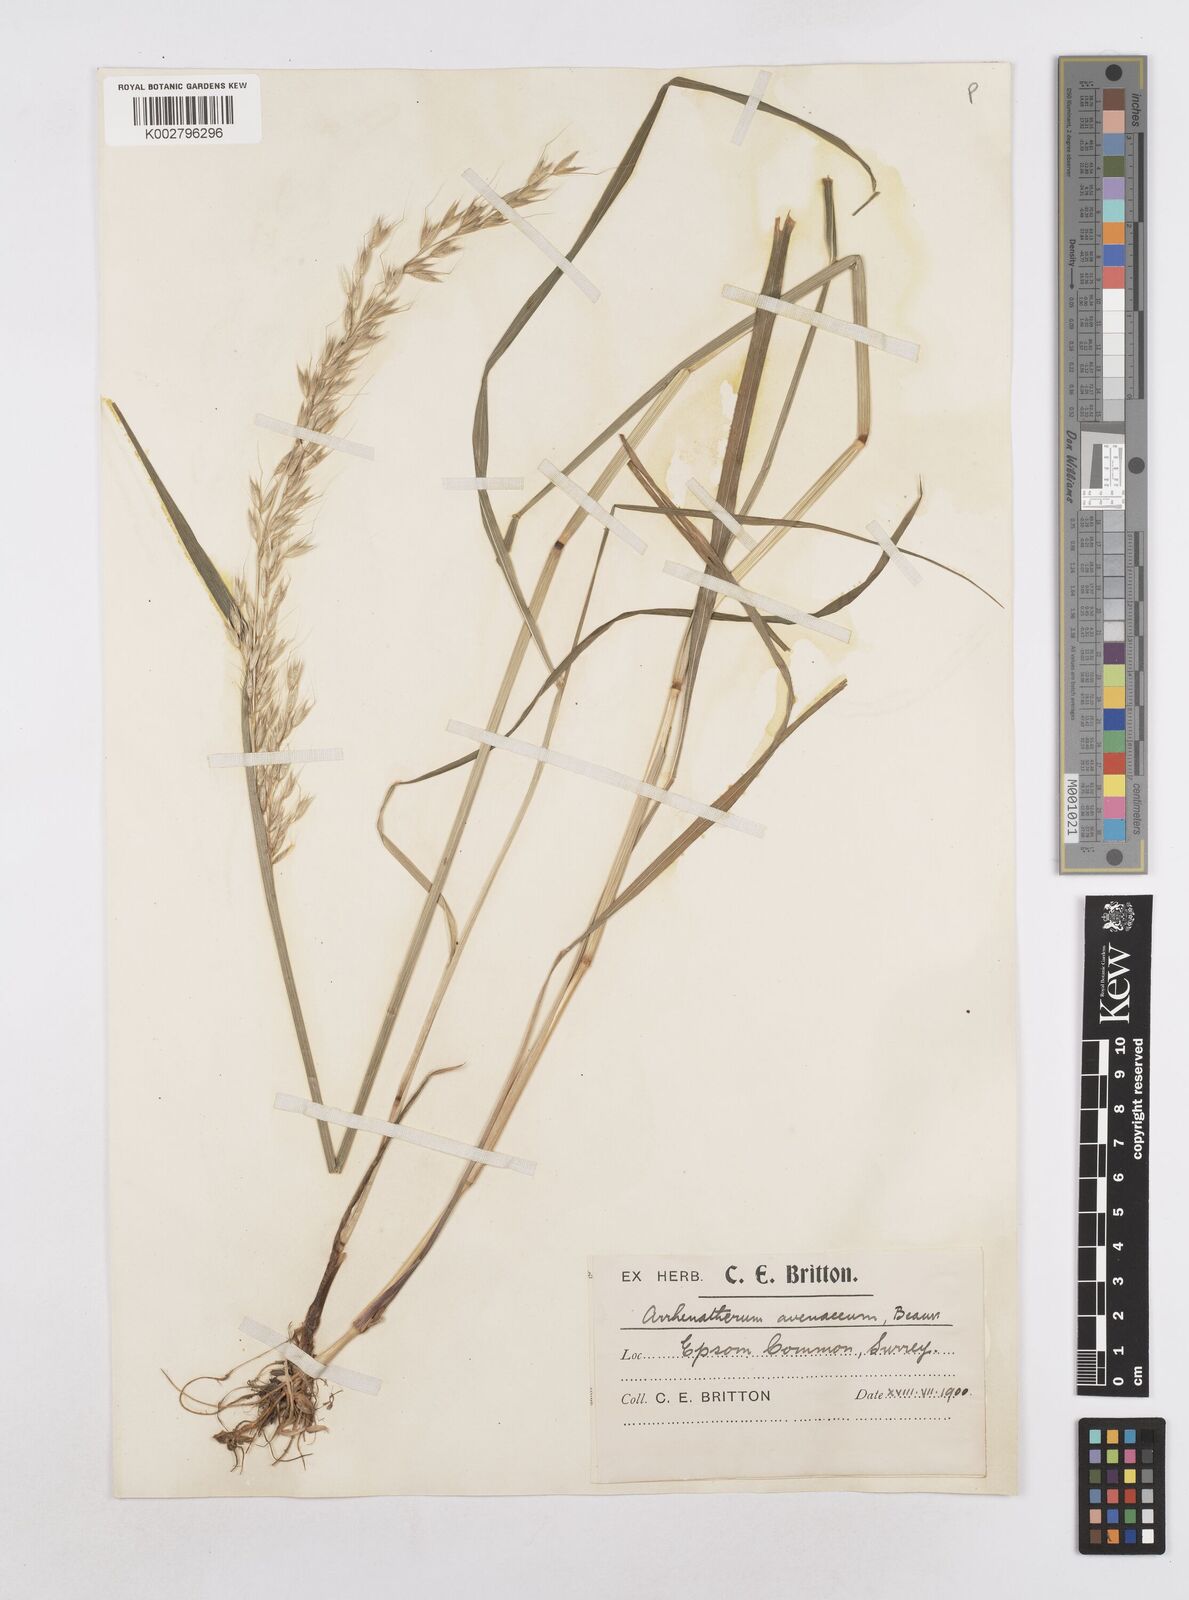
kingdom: Plantae
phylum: Tracheophyta
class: Liliopsida
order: Poales
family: Poaceae
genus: Arrhenatherum
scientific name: Arrhenatherum elatius
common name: Tall oatgrass
